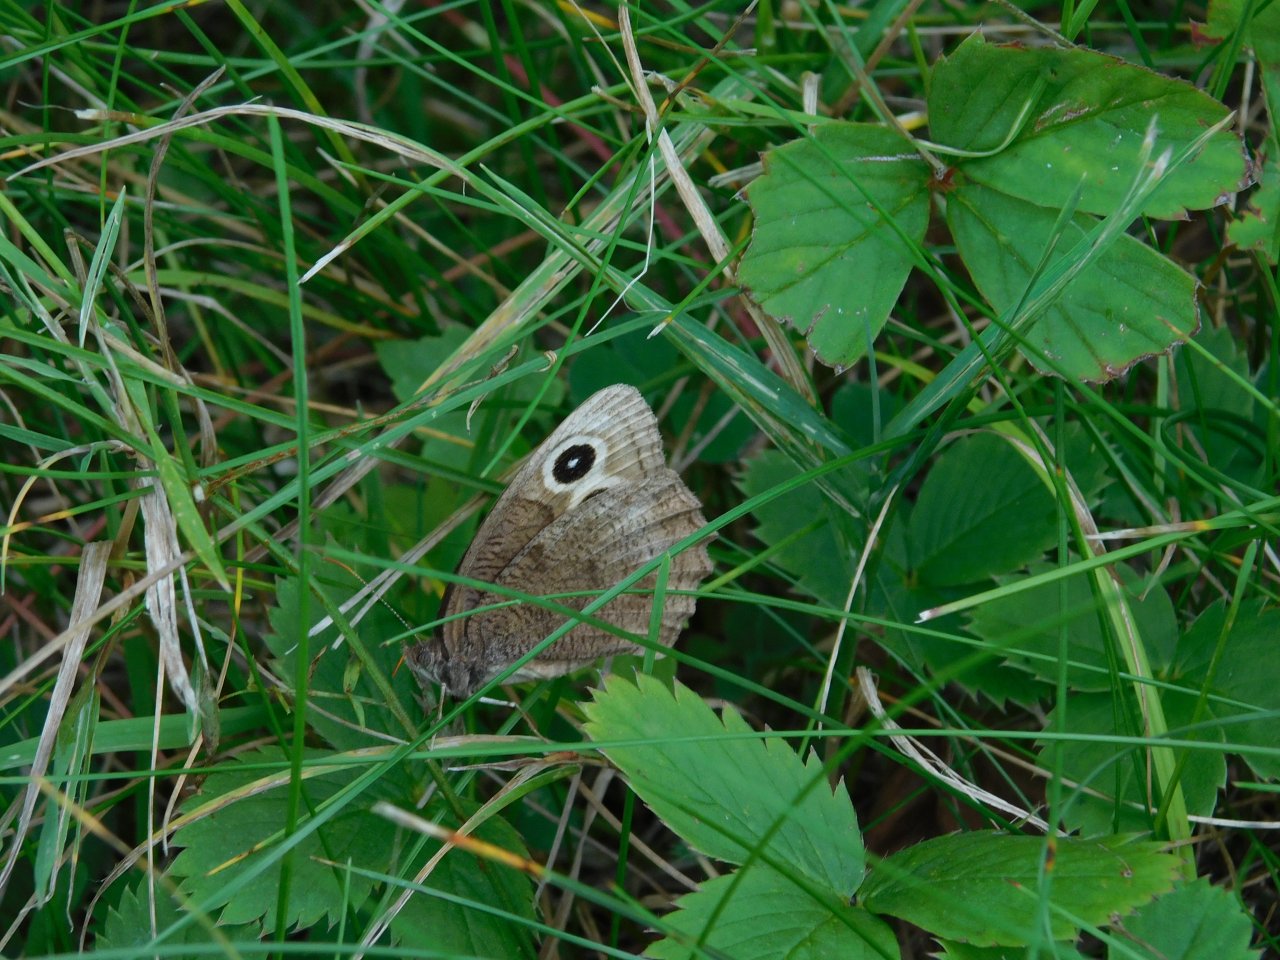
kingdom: Animalia
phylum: Arthropoda
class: Insecta
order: Lepidoptera
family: Nymphalidae
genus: Cercyonis
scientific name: Cercyonis pegala
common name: Common Wood-Nymph
